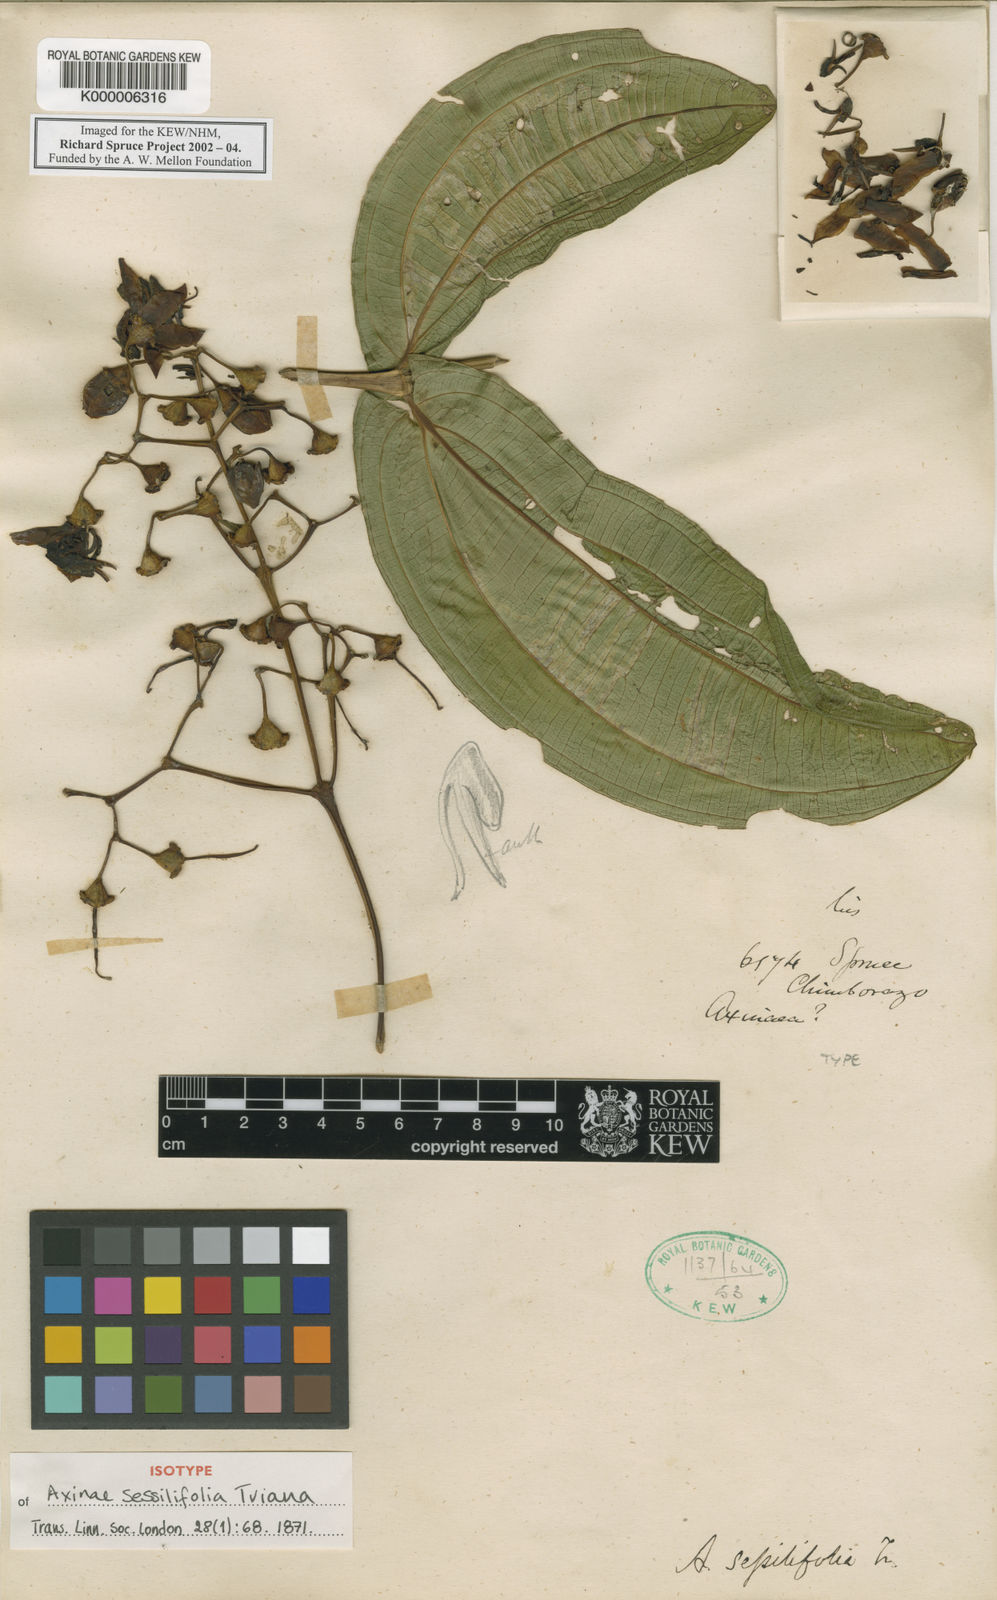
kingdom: Plantae
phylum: Tracheophyta
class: Magnoliopsida
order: Myrtales
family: Melastomataceae
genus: Axinaea
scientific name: Axinaea sessilifolia
